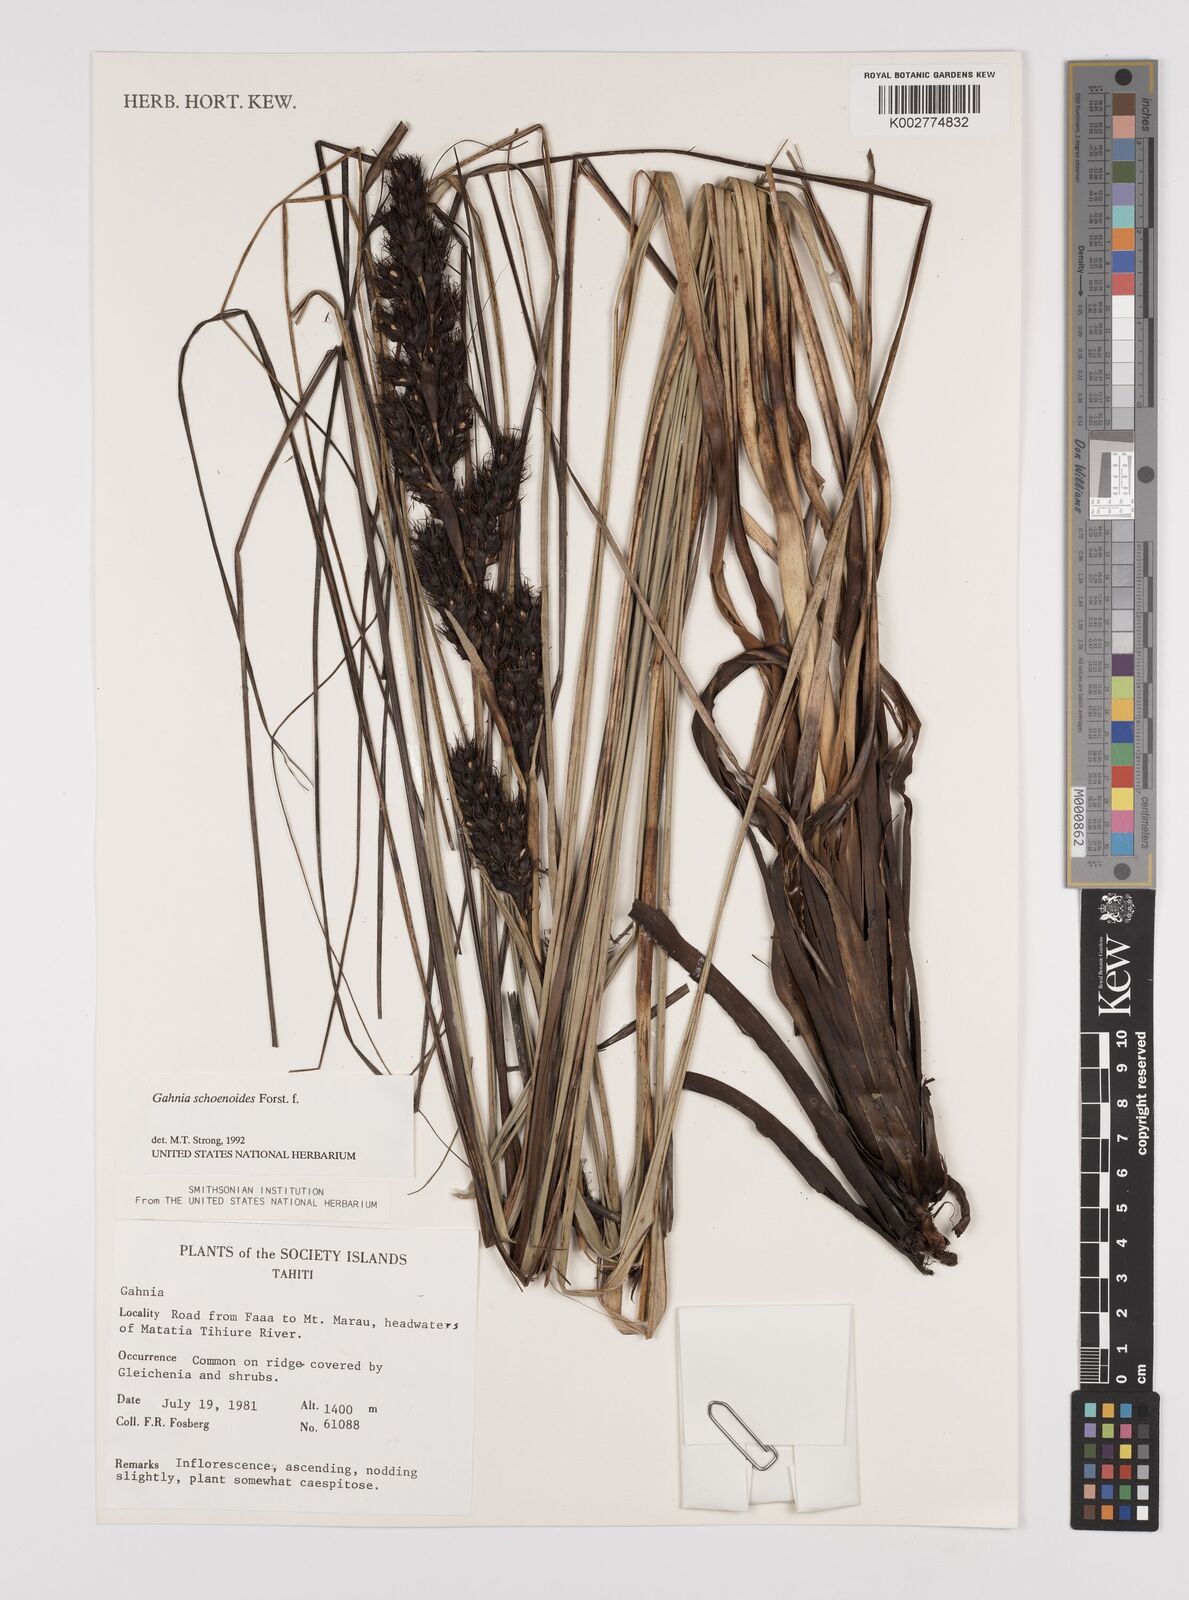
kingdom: Plantae
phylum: Tracheophyta
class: Liliopsida
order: Poales
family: Cyperaceae
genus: Gahnia
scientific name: Gahnia schoenoides
